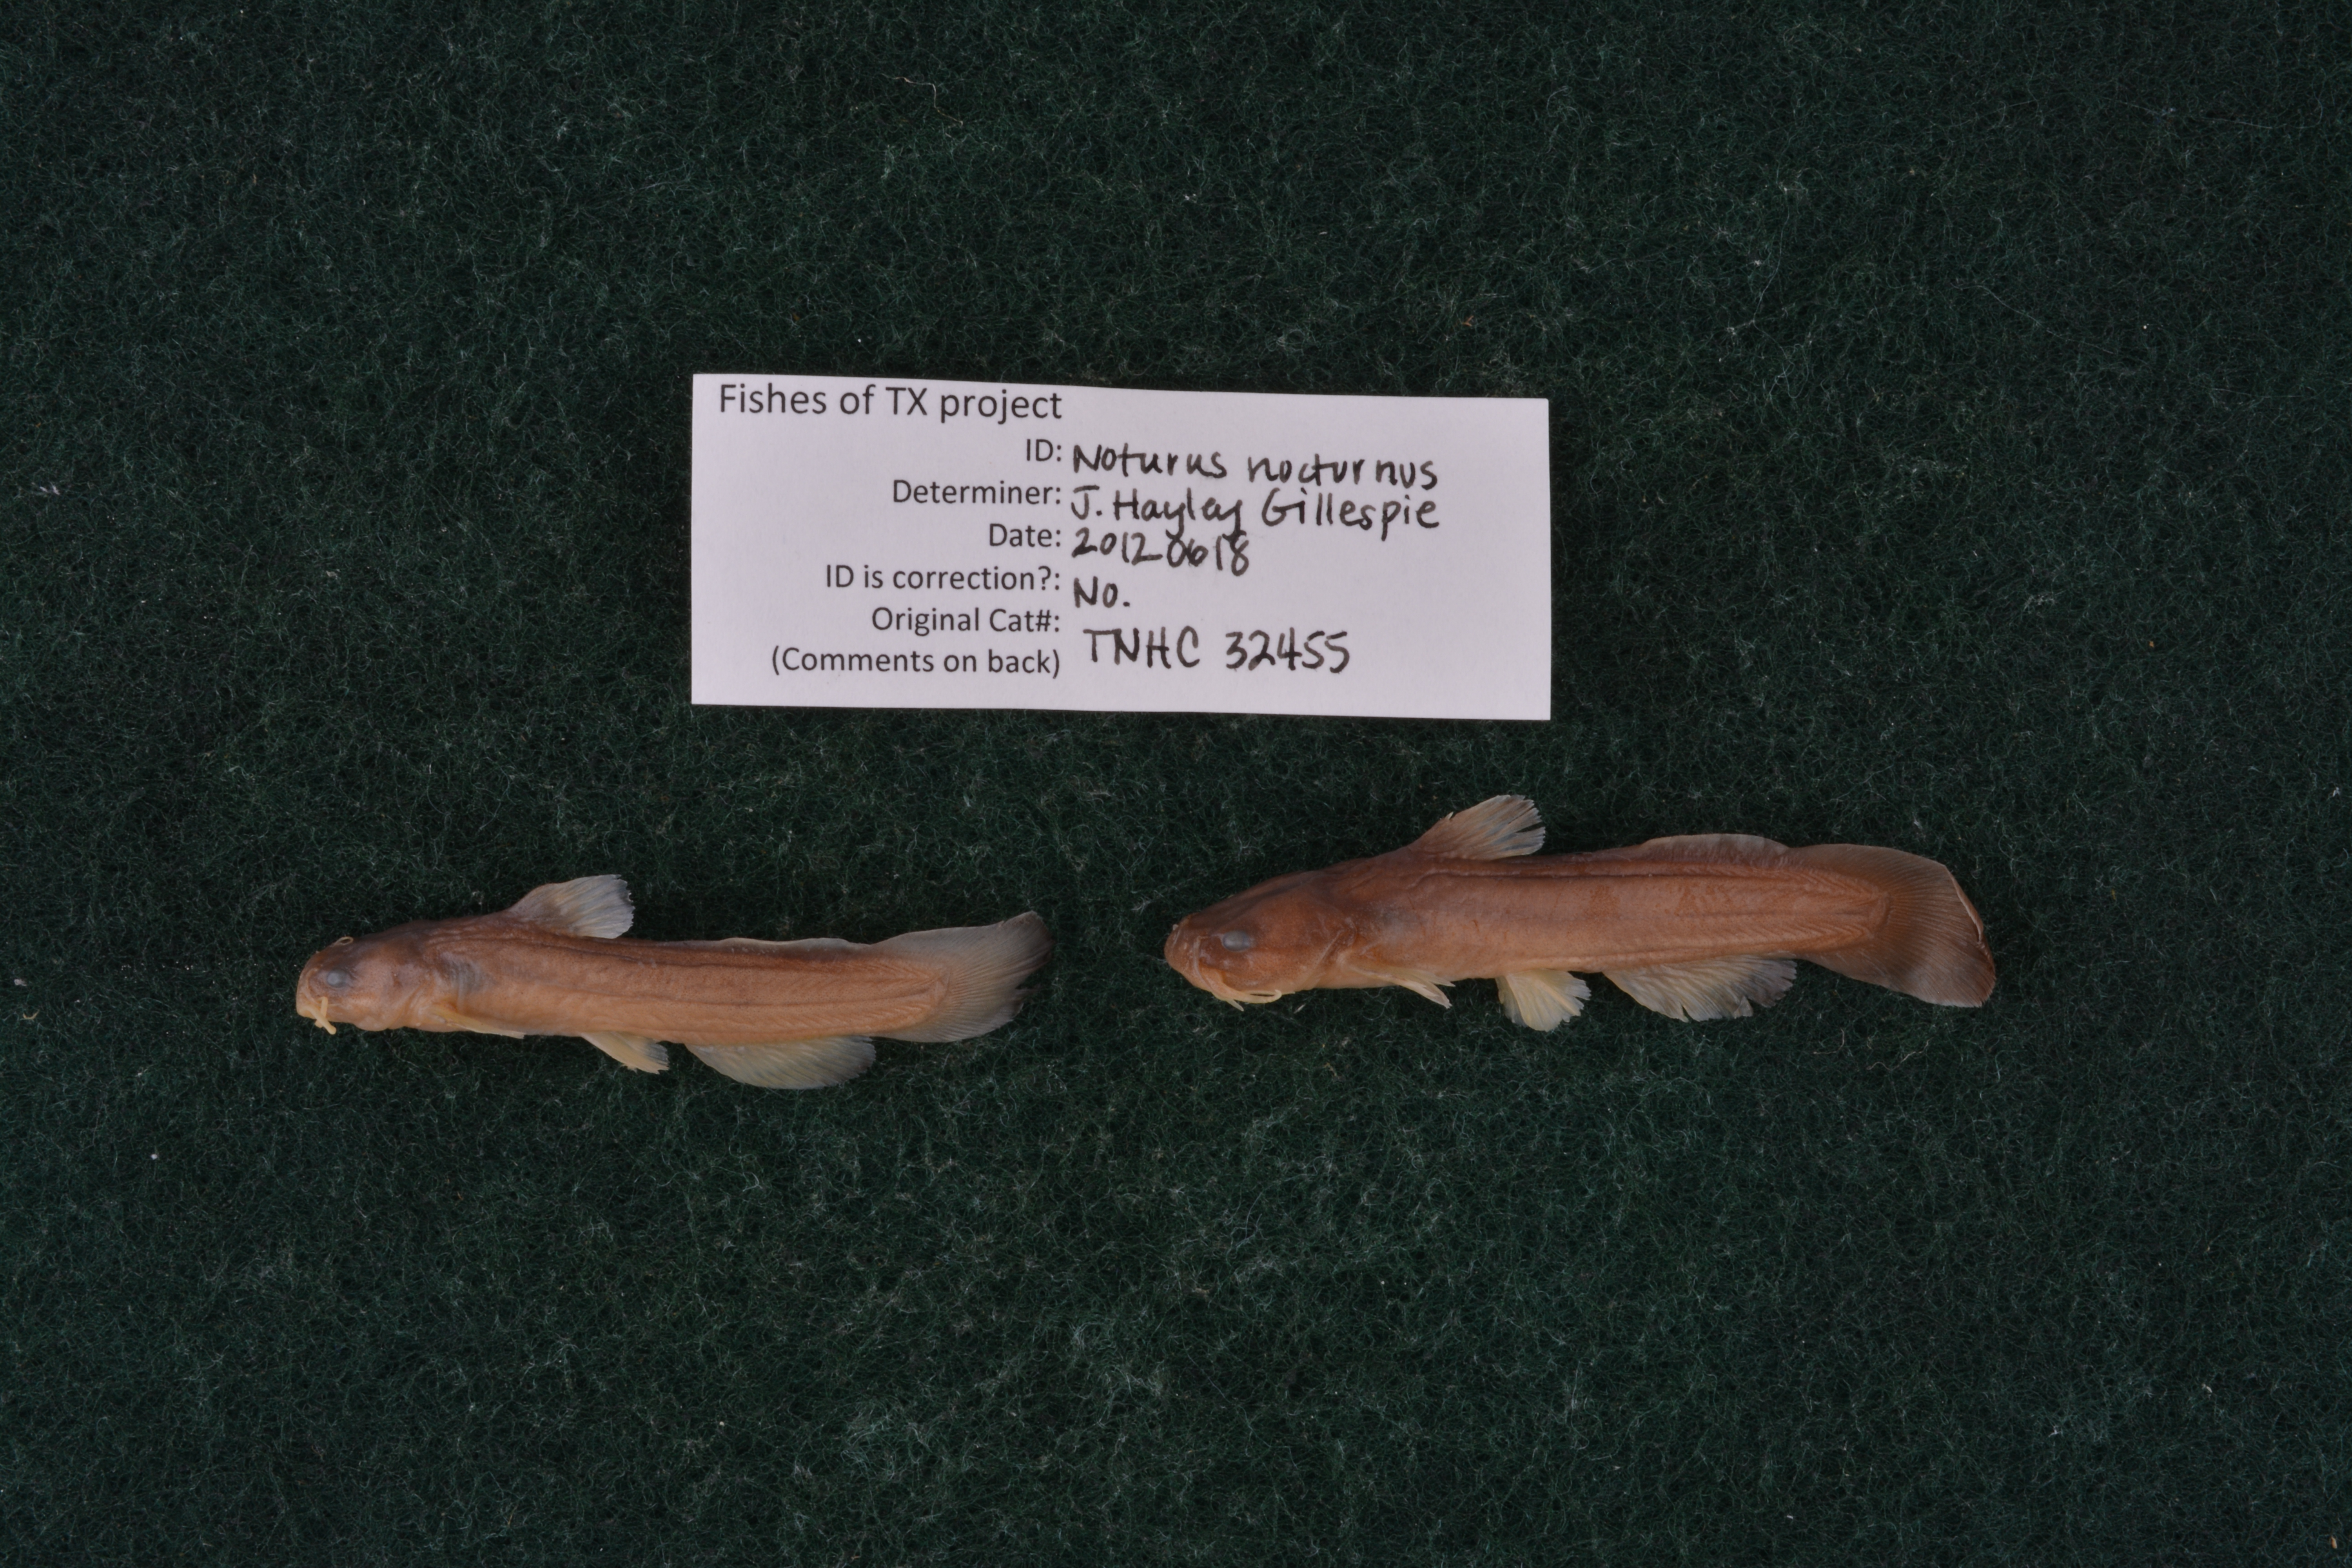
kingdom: Animalia
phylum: Chordata
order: Siluriformes
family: Ictaluridae
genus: Noturus
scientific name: Noturus nocturnus
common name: Freckled madtom
